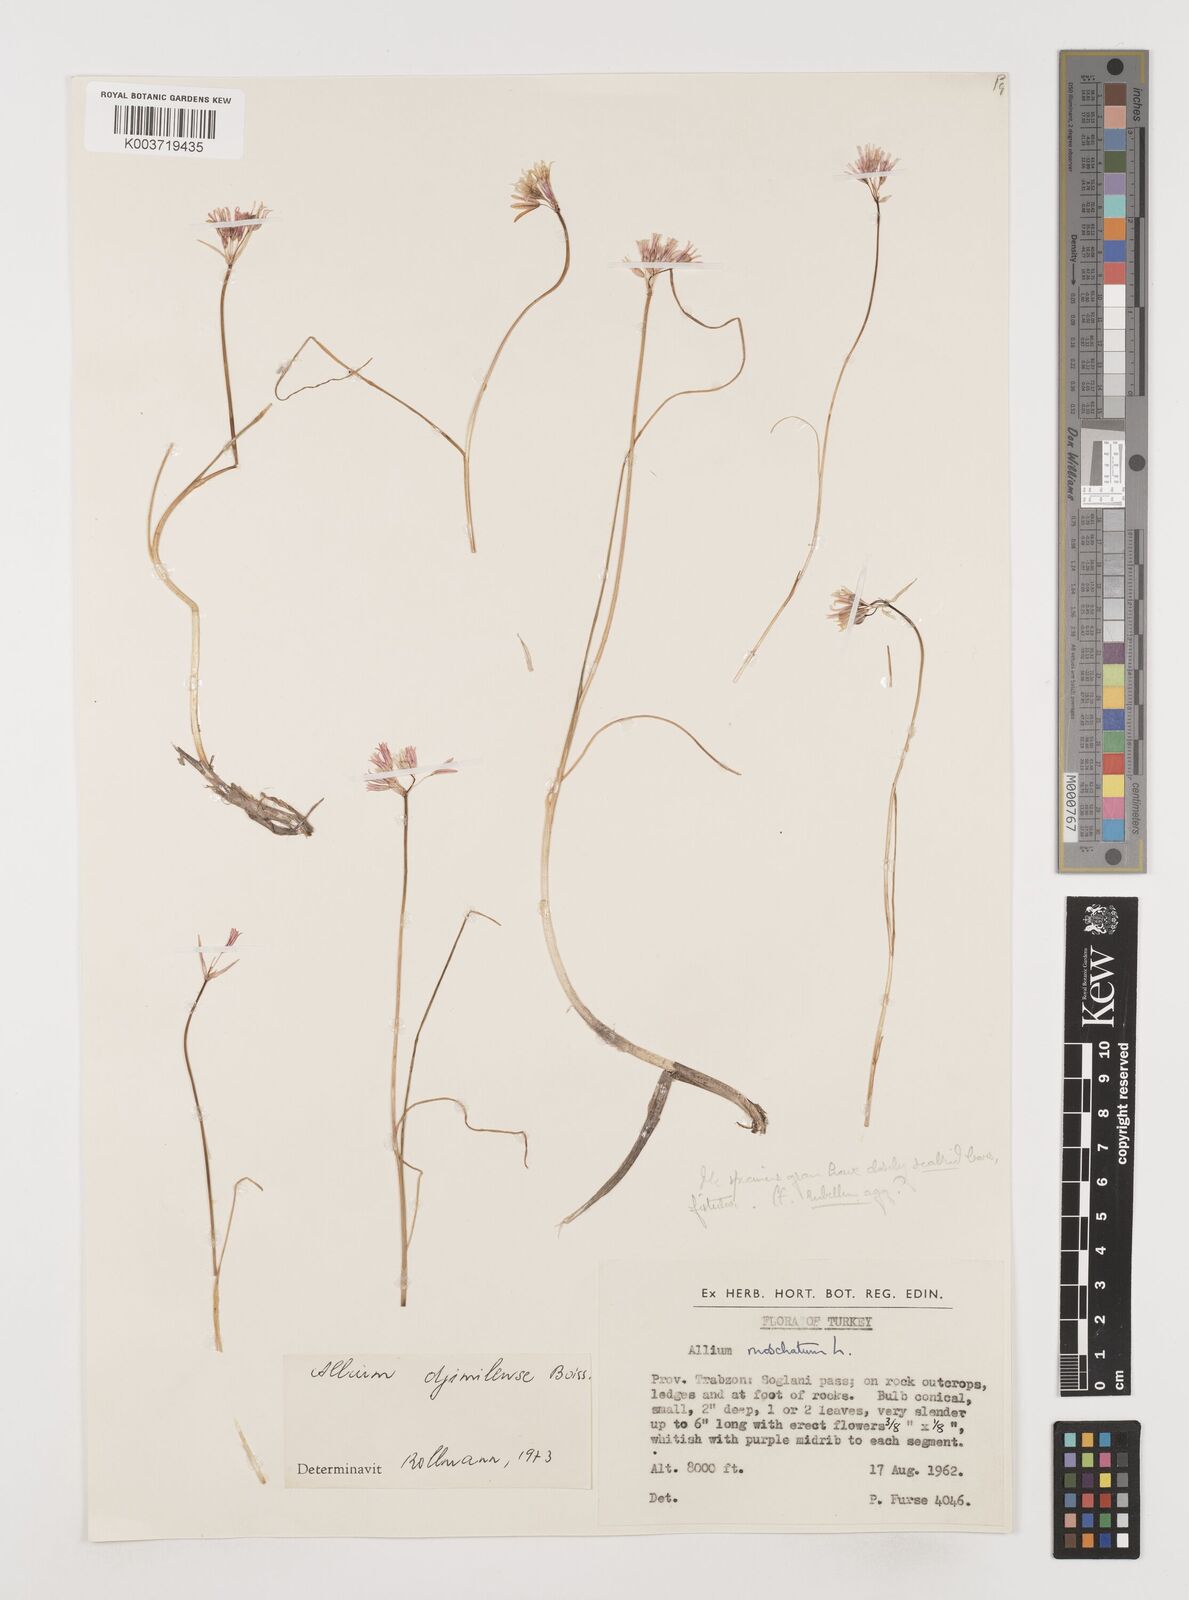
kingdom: Plantae
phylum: Tracheophyta
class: Liliopsida
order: Asparagales
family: Amaryllidaceae
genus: Allium
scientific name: Allium djimilense
